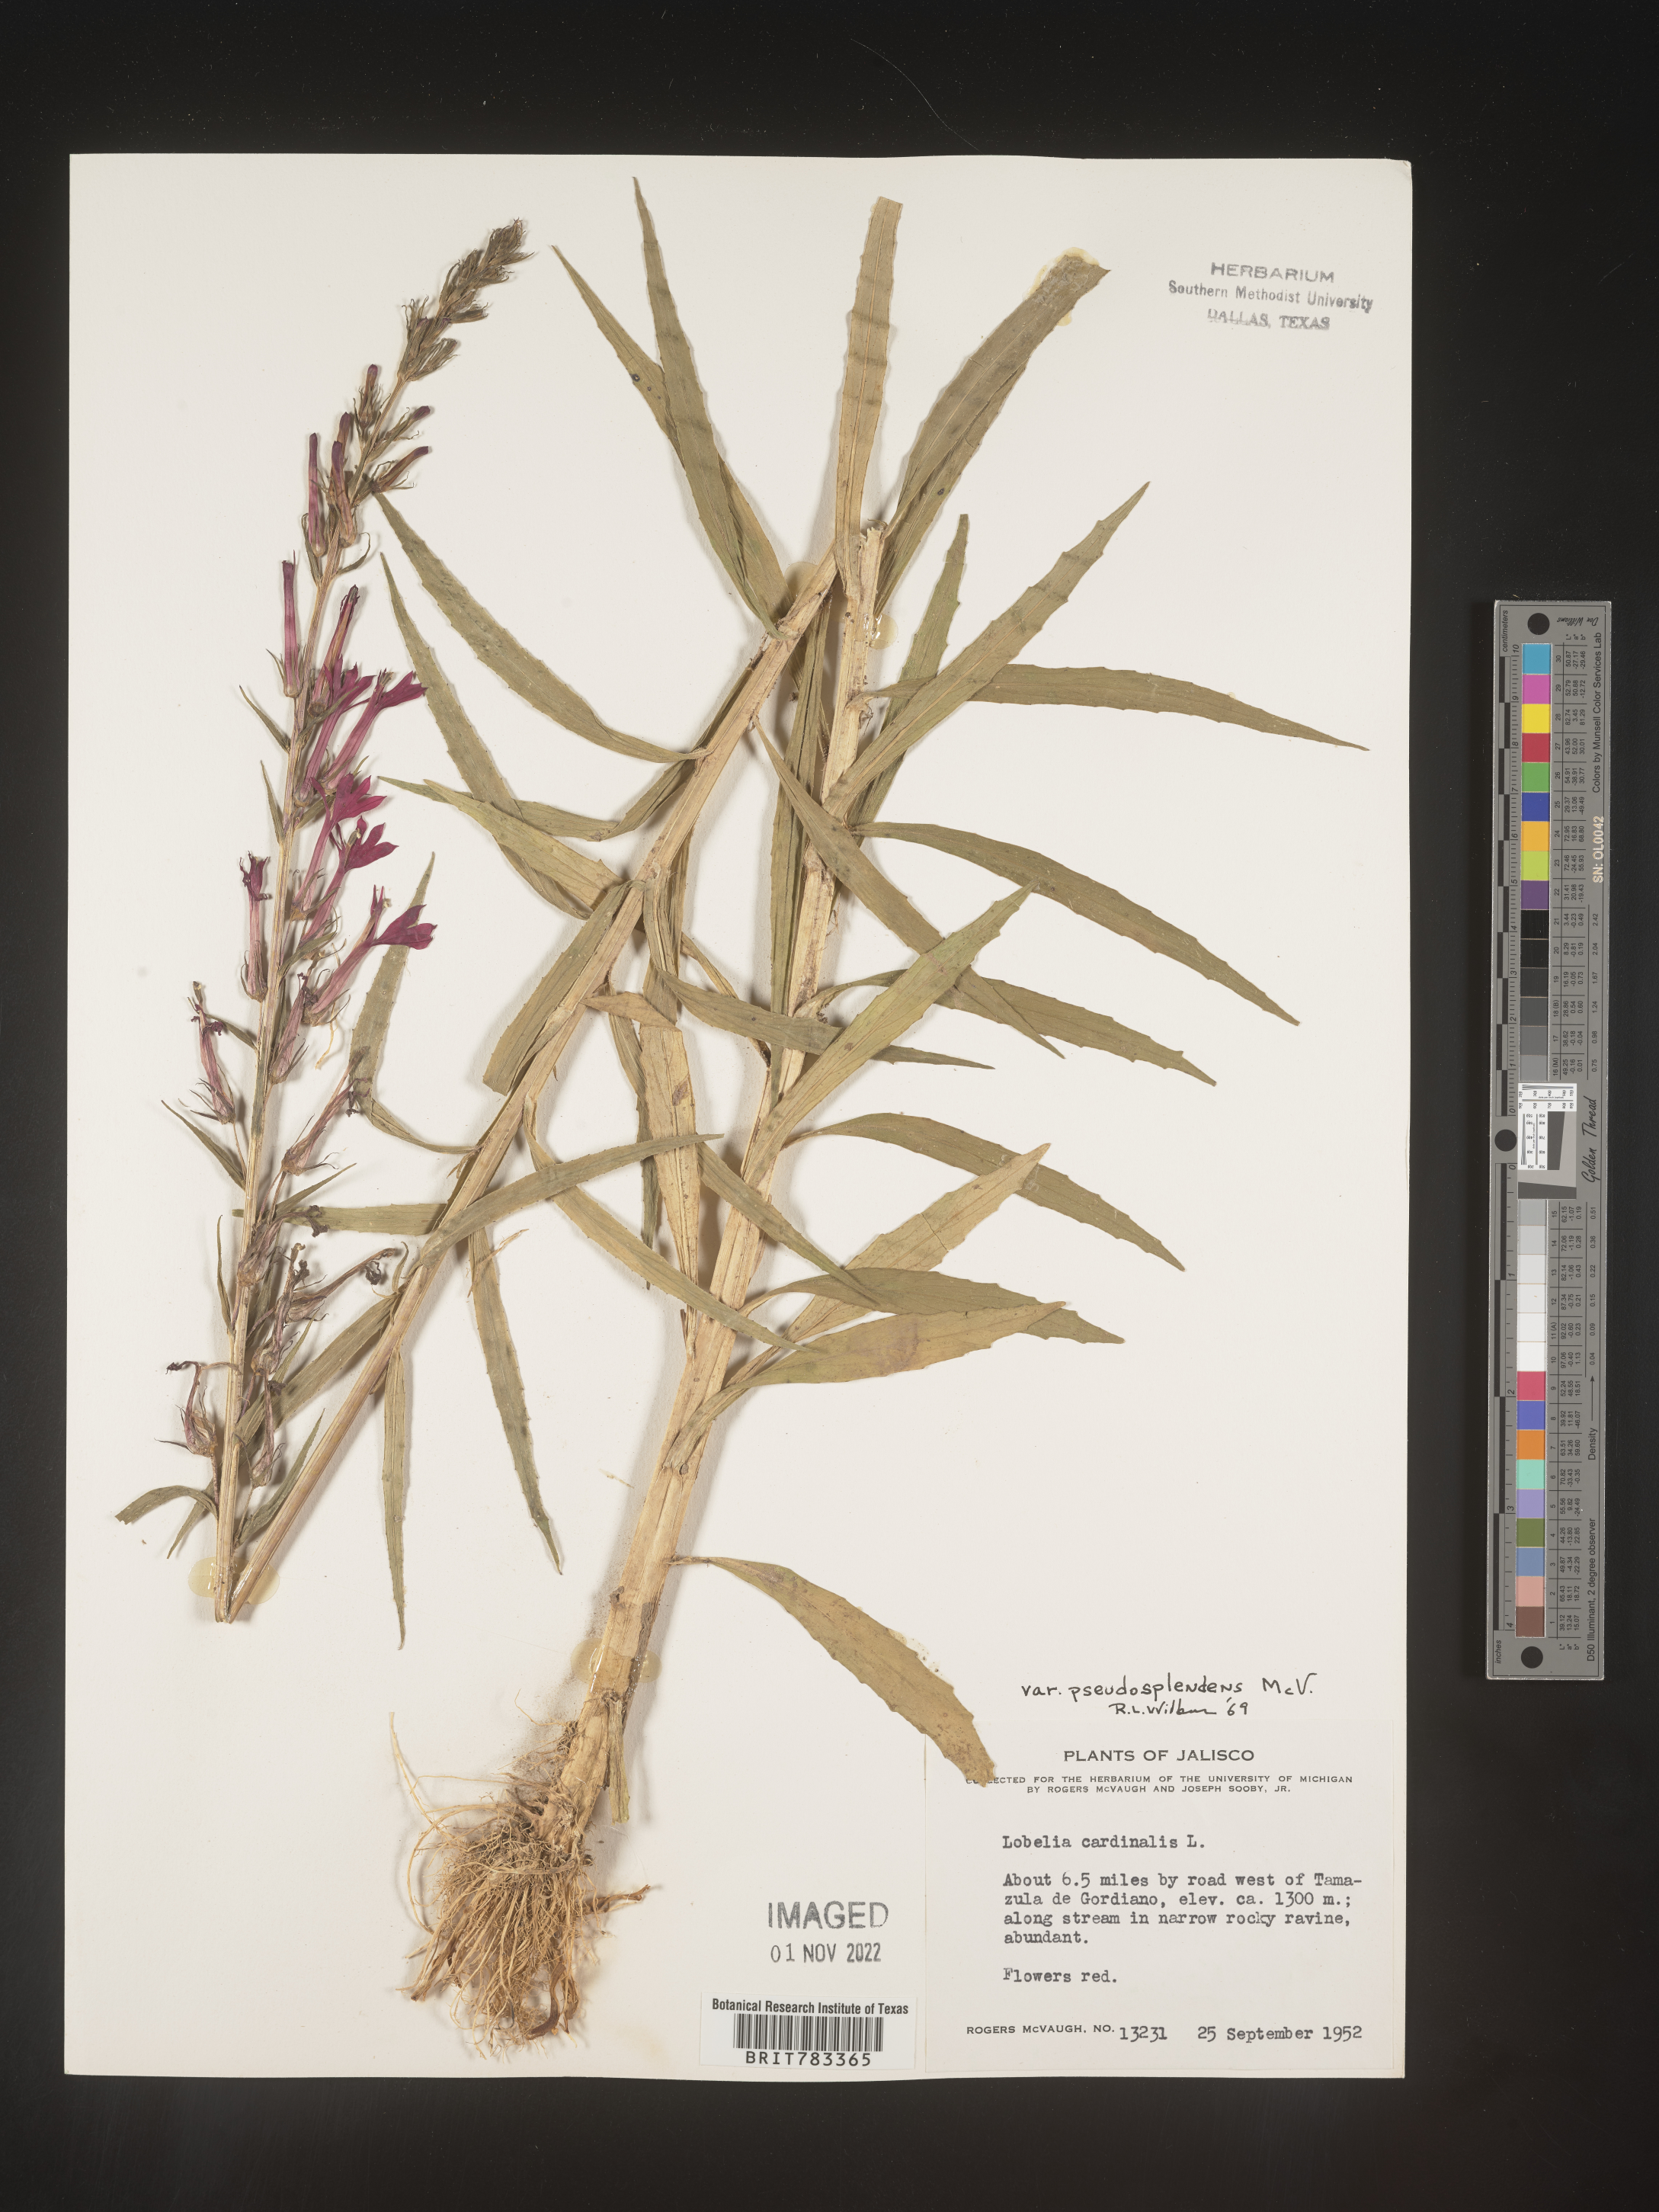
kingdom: Plantae
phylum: Tracheophyta
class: Magnoliopsida
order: Asterales
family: Campanulaceae
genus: Lobelia
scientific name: Lobelia
